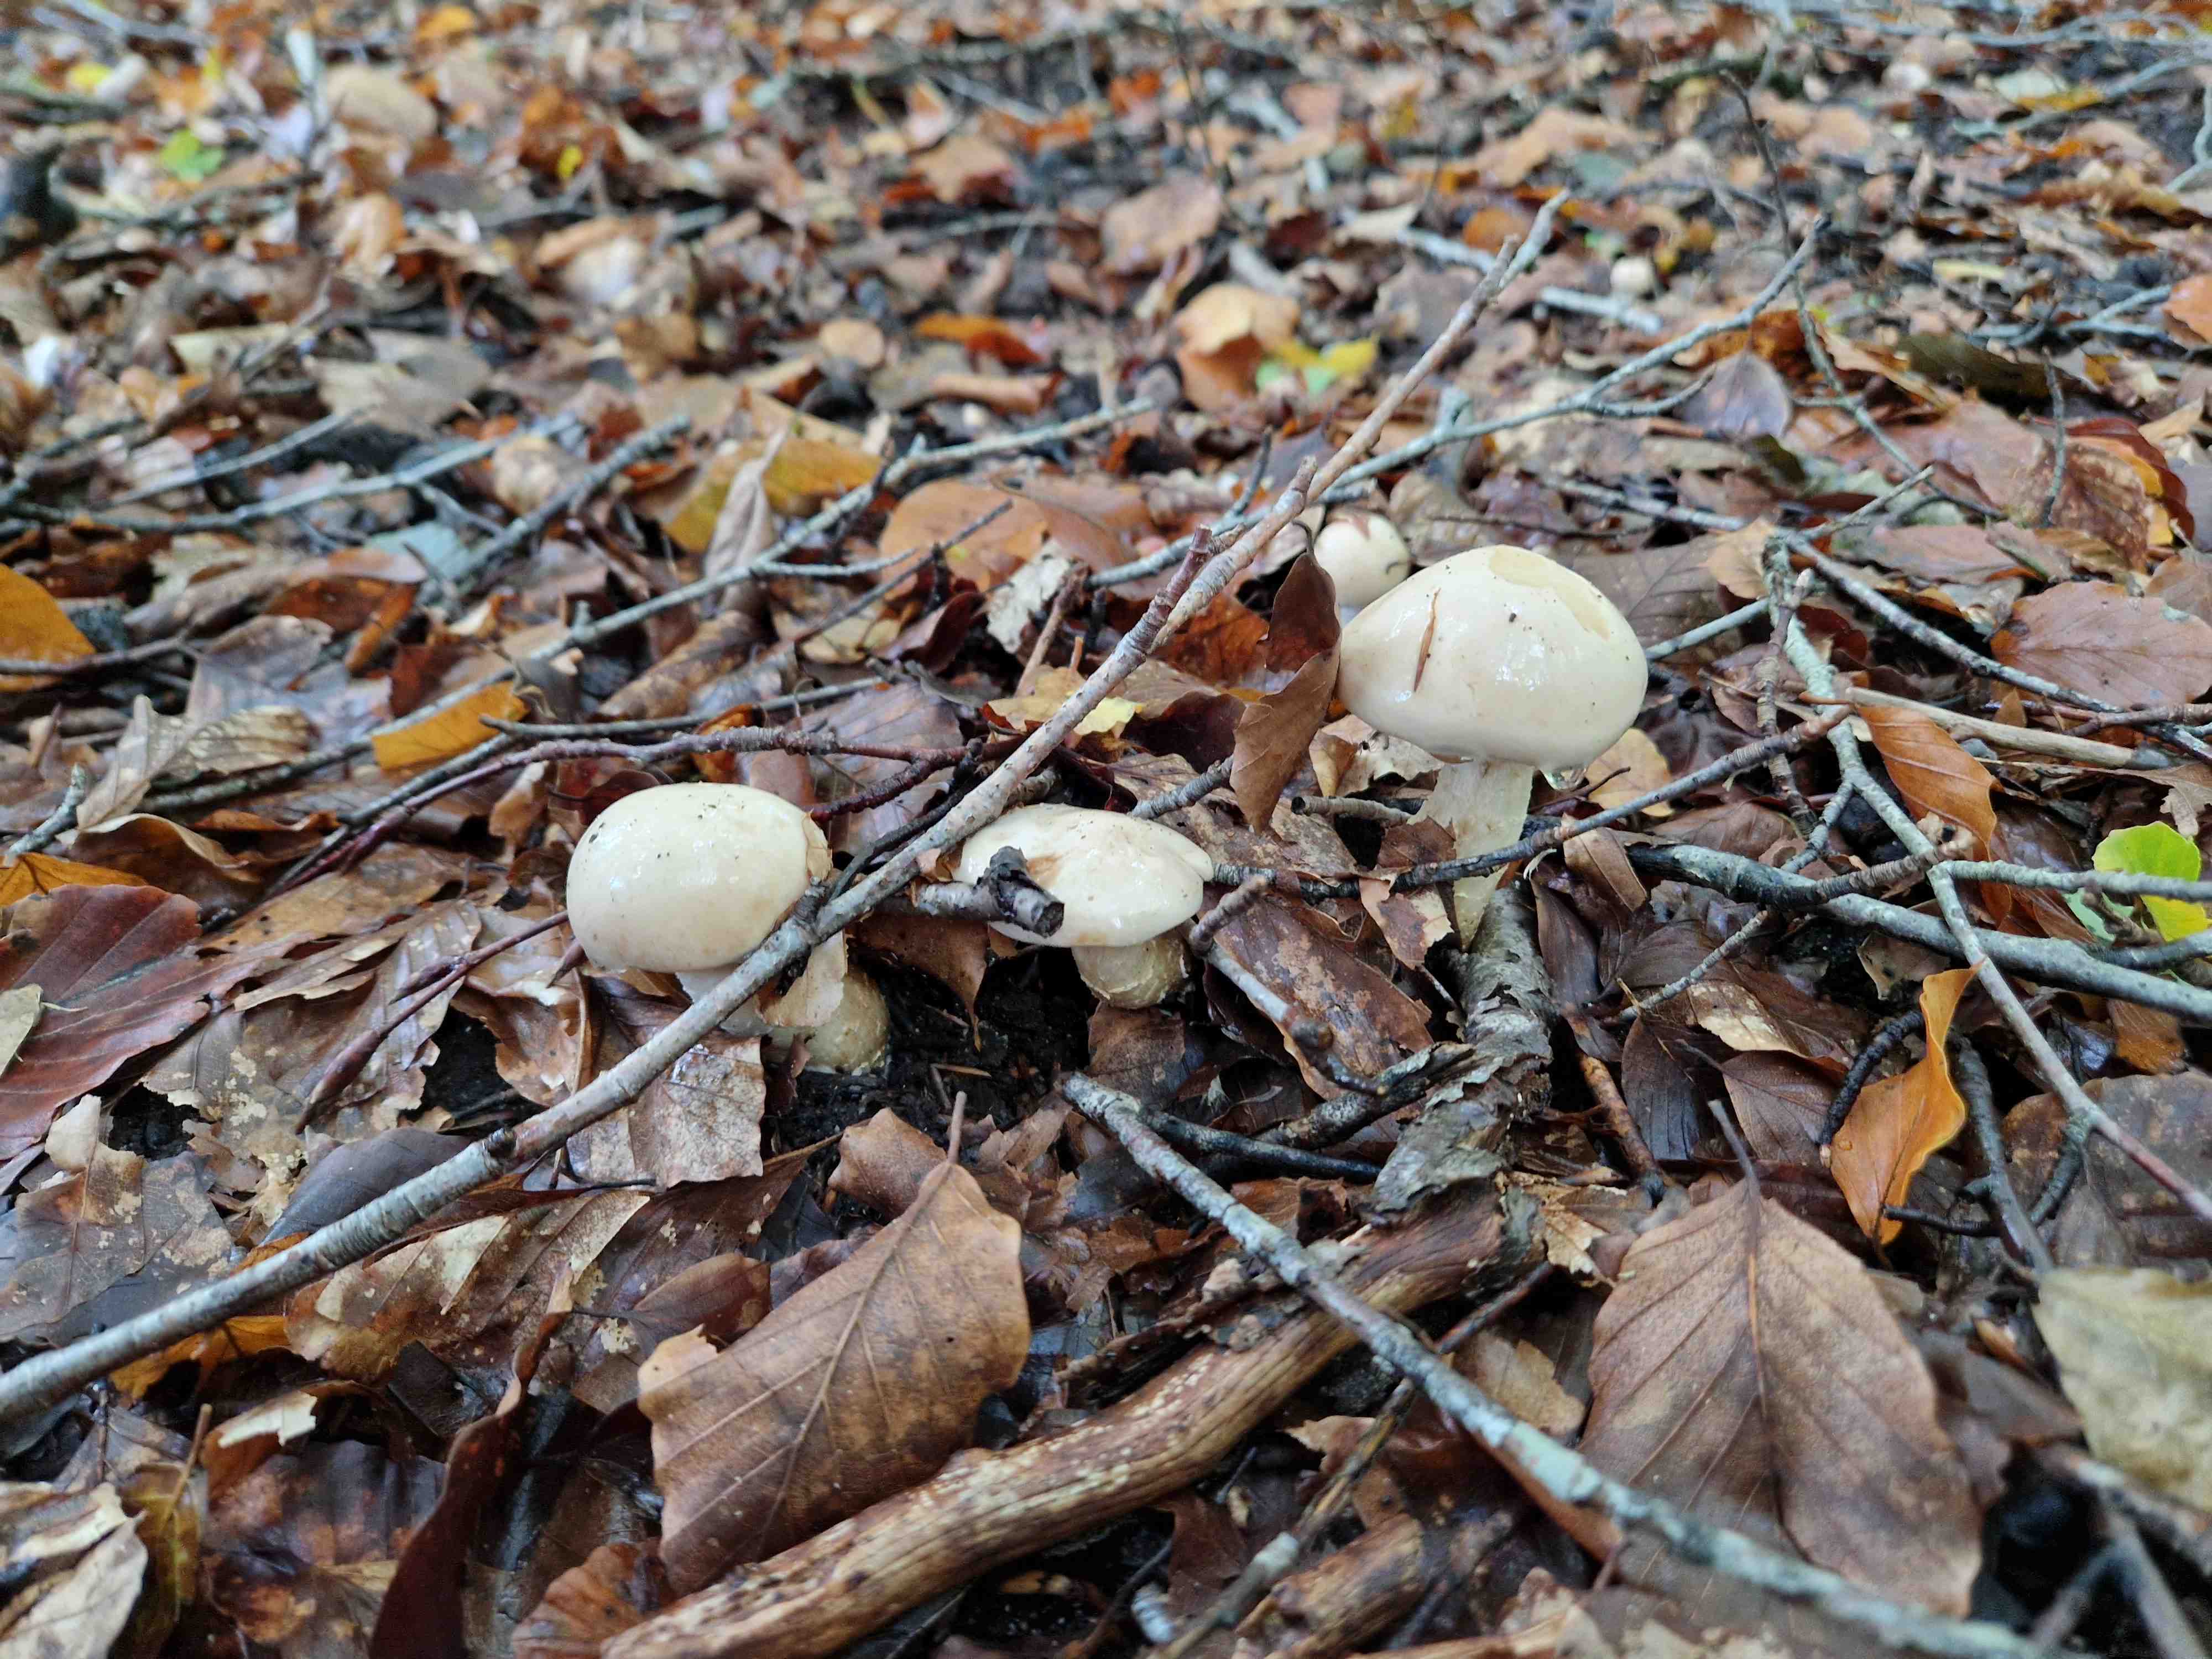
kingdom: Fungi
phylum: Basidiomycota
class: Agaricomycetes
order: Agaricales
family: Hymenogastraceae
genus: Hebeloma
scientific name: Hebeloma laterinum
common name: kakao-tåreblad
